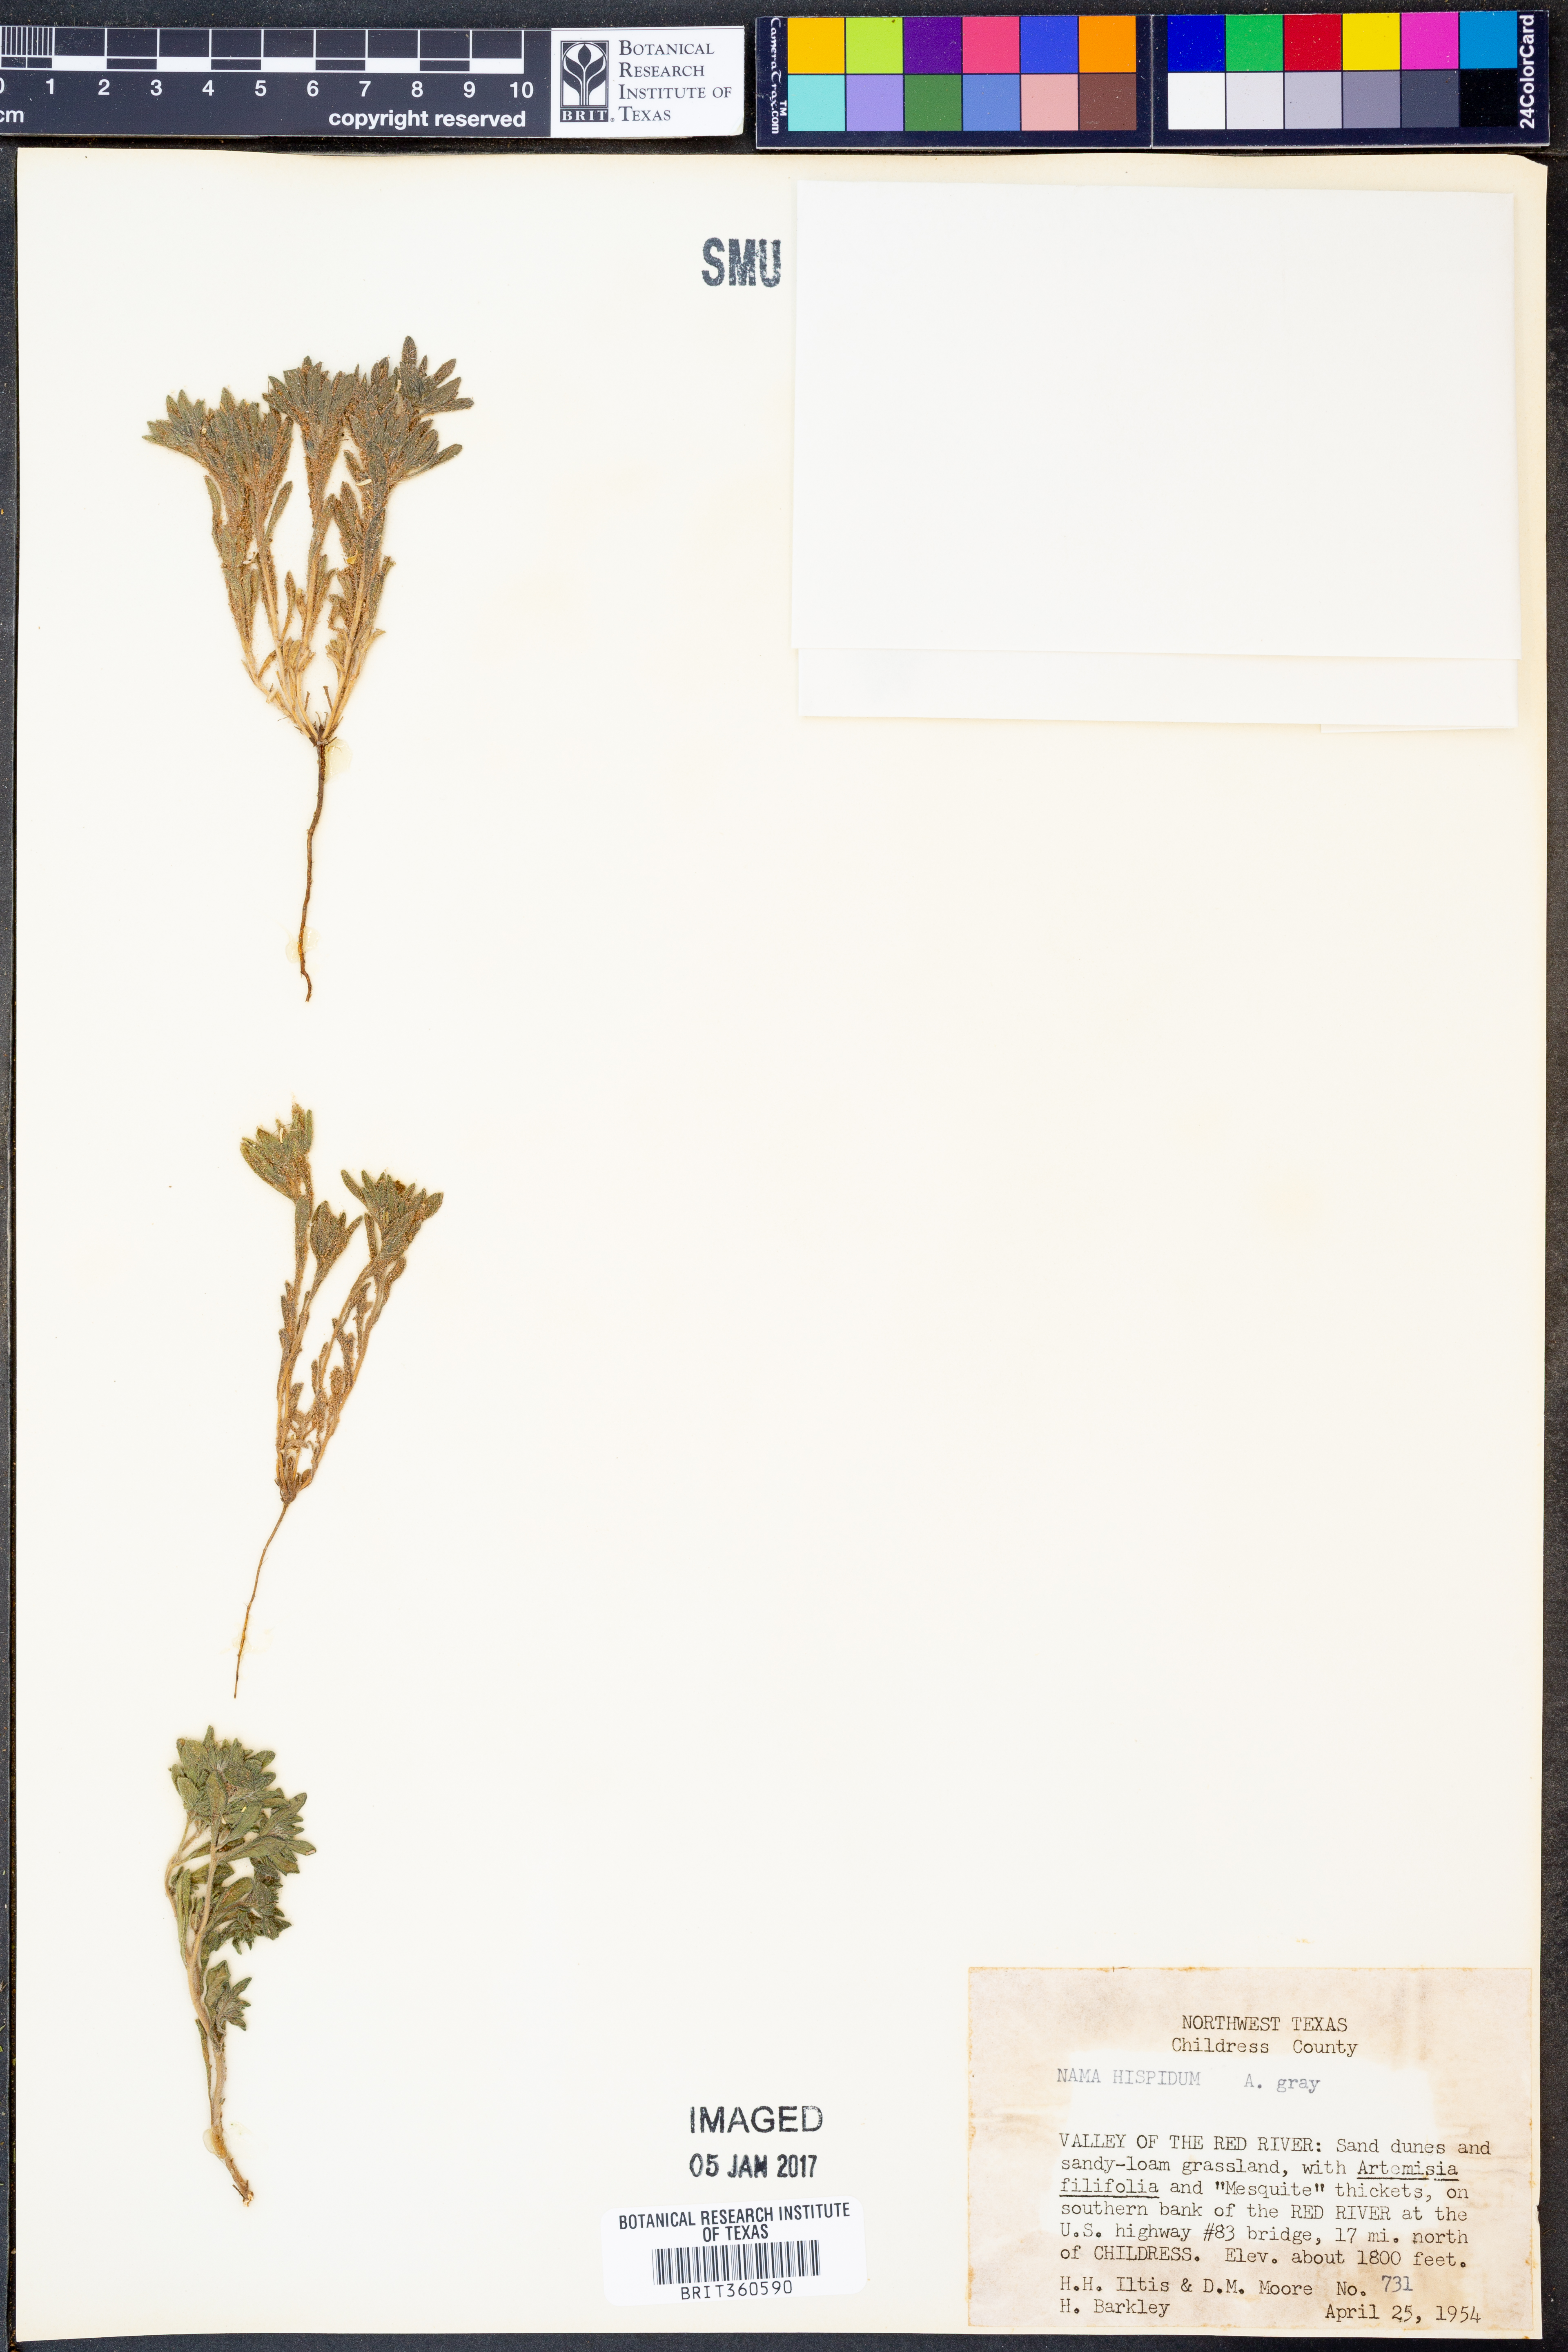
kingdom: Plantae
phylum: Tracheophyta
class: Magnoliopsida
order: Boraginales
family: Namaceae
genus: Nama
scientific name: Nama hispida
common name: Bristly nama
